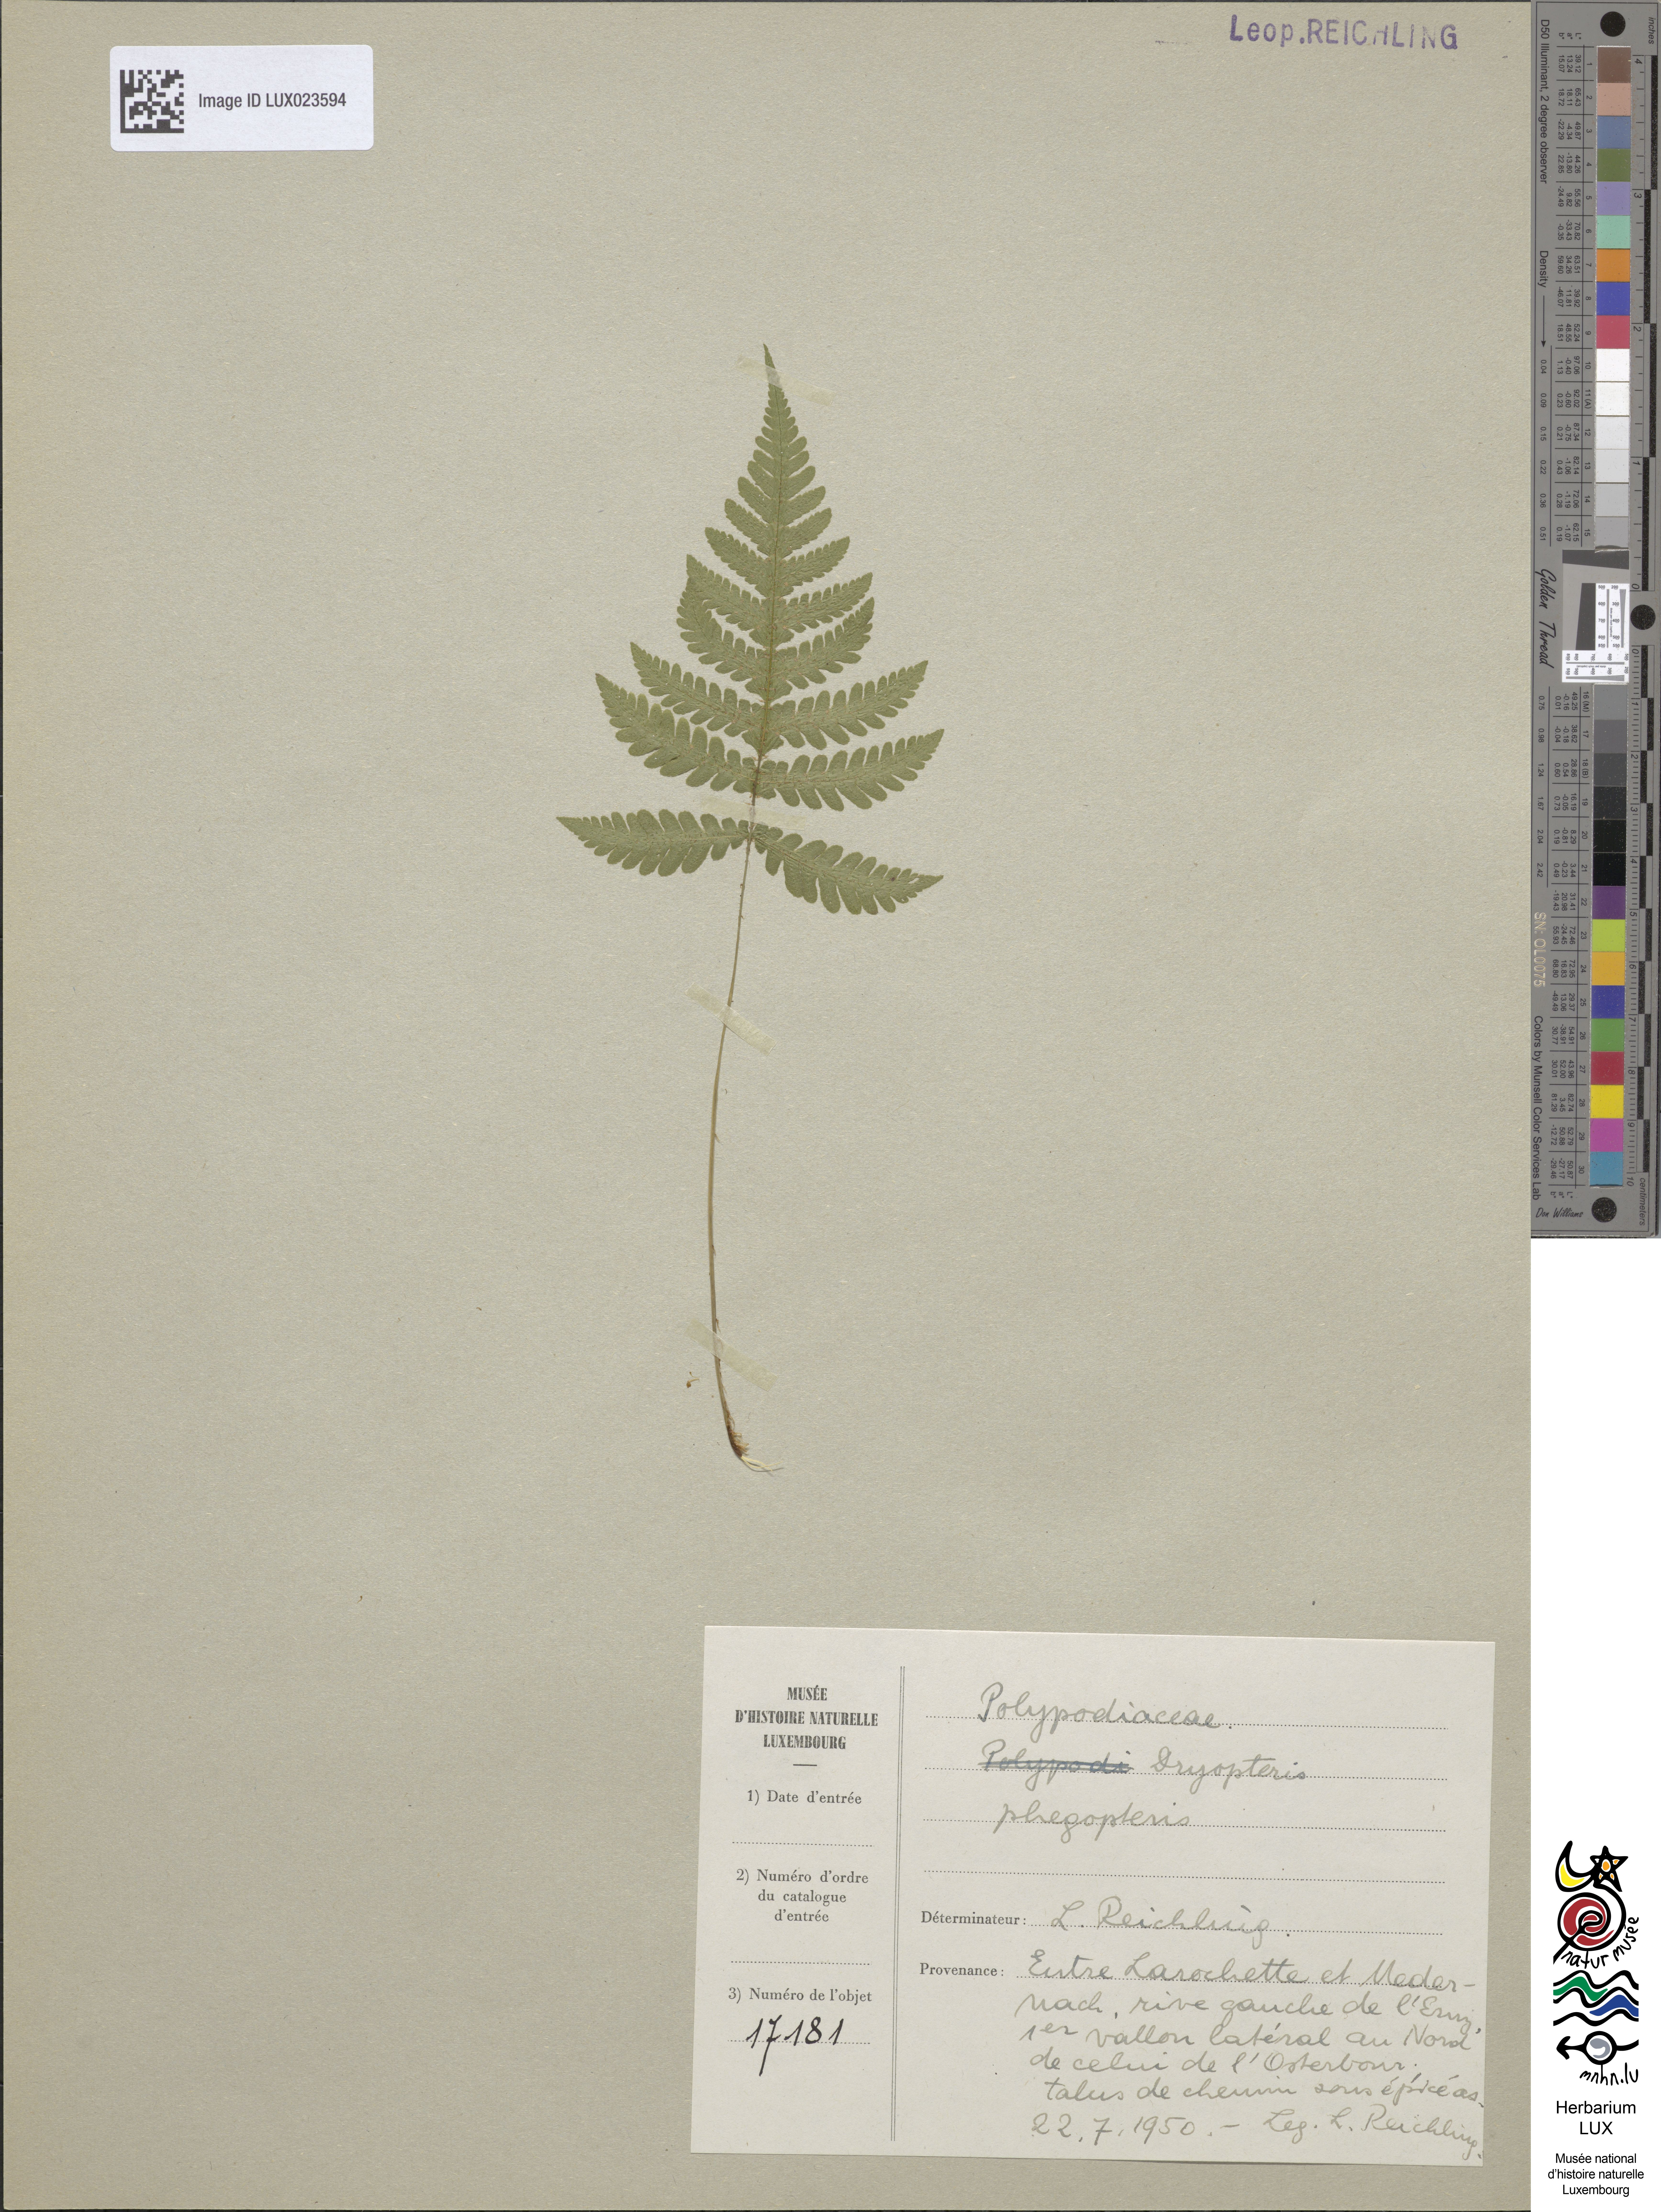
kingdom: Plantae
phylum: Tracheophyta
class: Polypodiopsida
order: Polypodiales
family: Thelypteridaceae
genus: Phegopteris
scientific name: Phegopteris connectilis
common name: Beech fern
